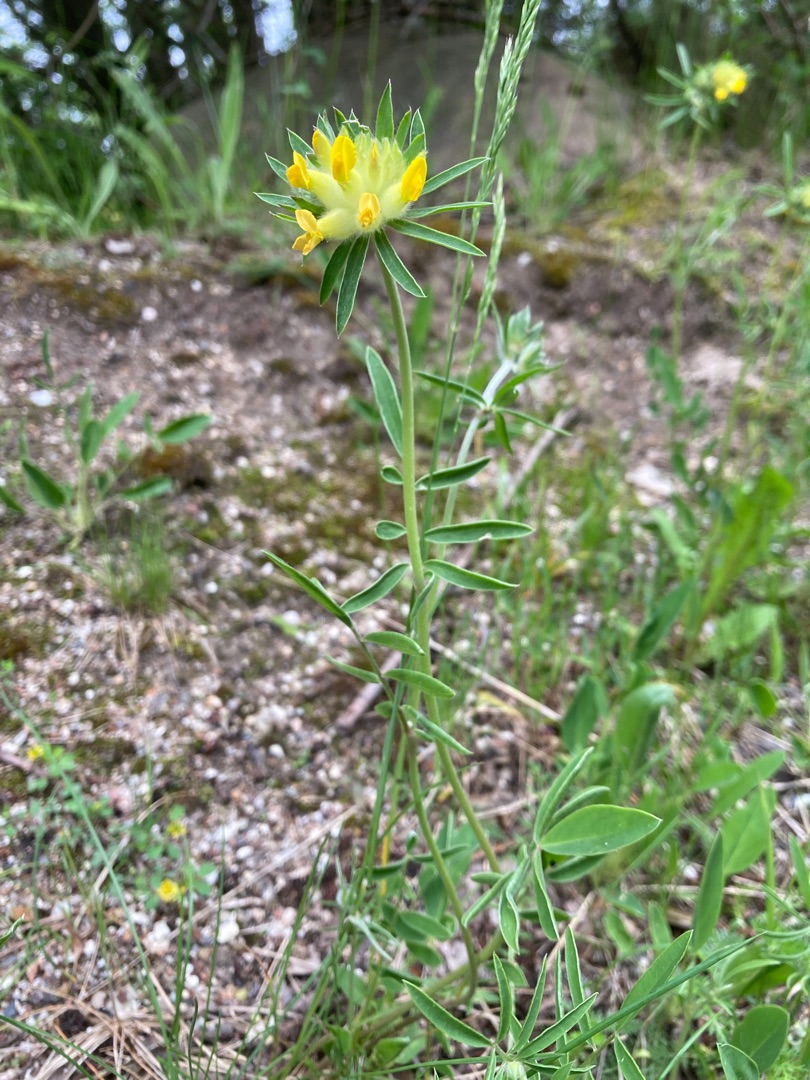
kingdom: Plantae
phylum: Tracheophyta
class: Magnoliopsida
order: Fabales
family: Fabaceae
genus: Anthyllis
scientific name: Anthyllis vulneraria
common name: Rundbælg
